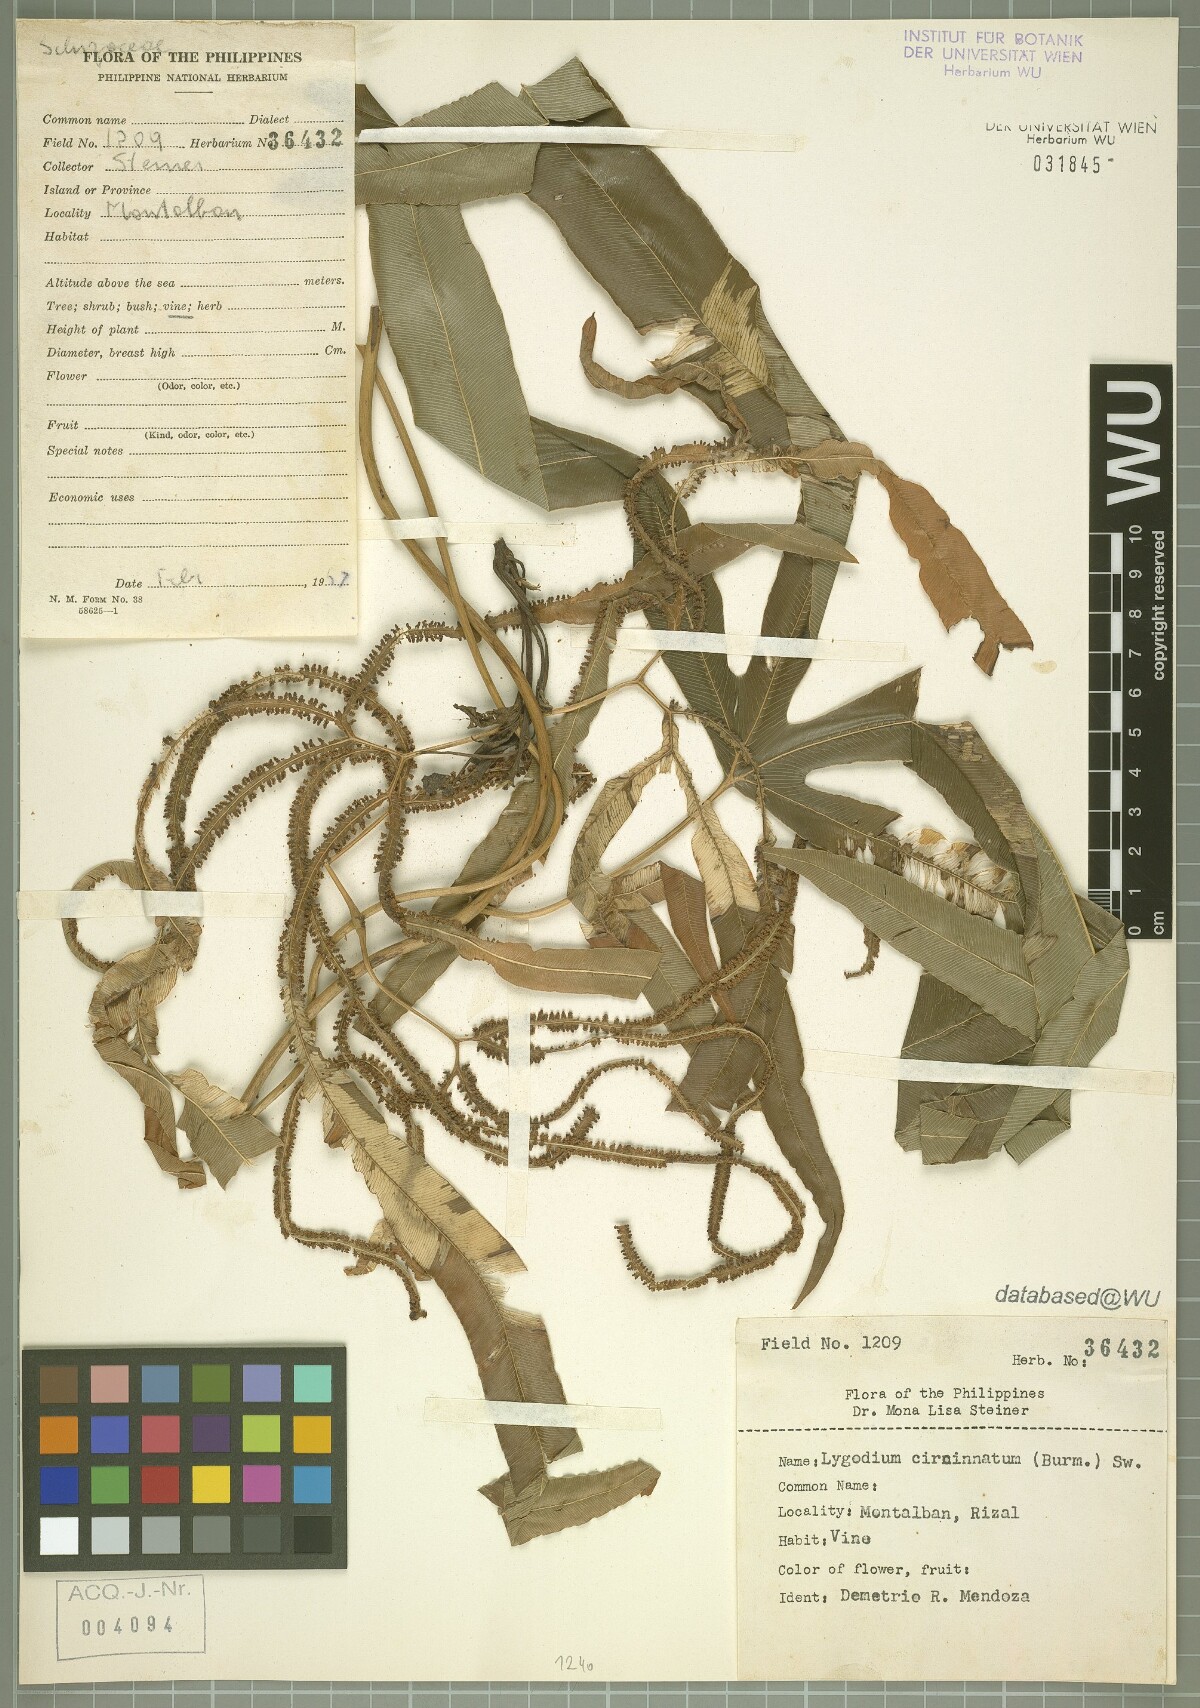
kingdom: Plantae
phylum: Tracheophyta
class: Polypodiopsida
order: Schizaeales
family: Lygodiaceae
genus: Lygodium
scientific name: Lygodium circinnatum
